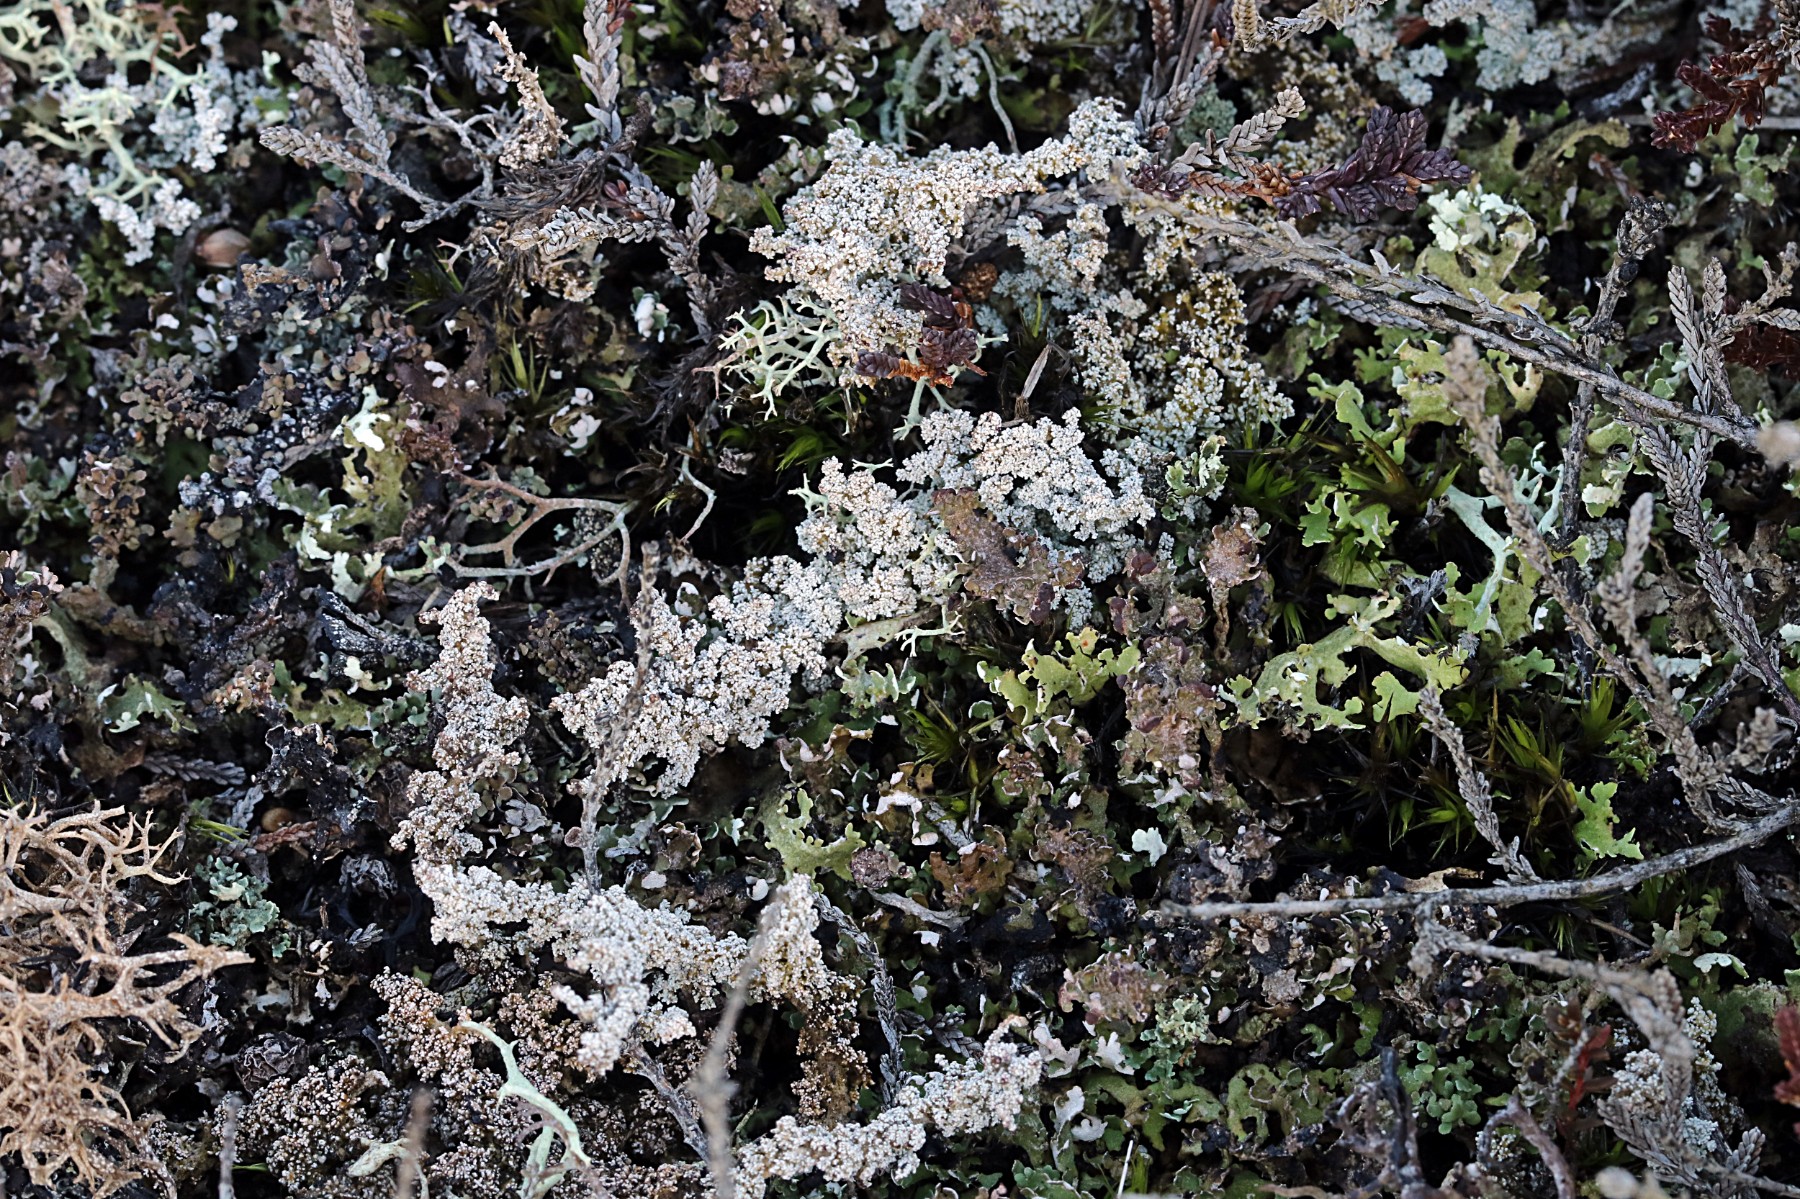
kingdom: Fungi
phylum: Ascomycota
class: Lecanoromycetes
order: Lecanorales
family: Stereocaulaceae
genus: Stereocaulon
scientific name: Stereocaulon saxatile
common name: klit-korallav
